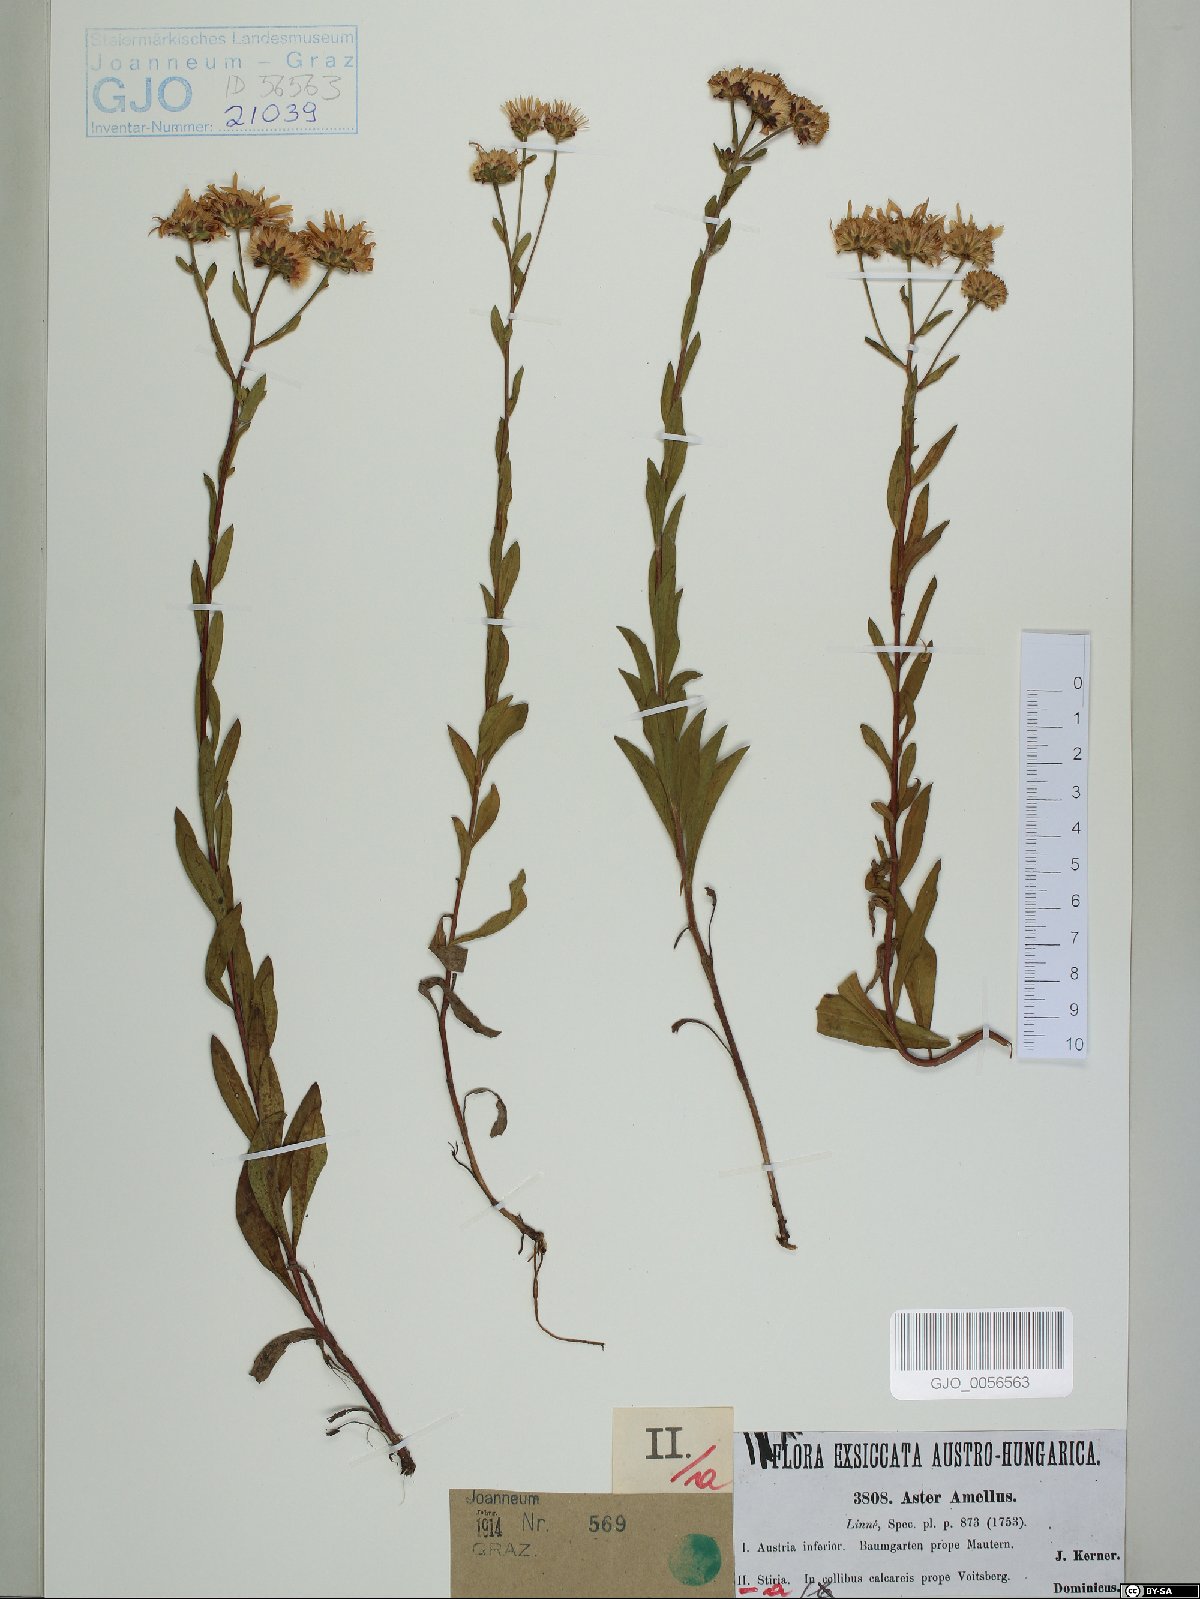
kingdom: Plantae
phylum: Tracheophyta
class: Magnoliopsida
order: Asterales
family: Asteraceae
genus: Aster
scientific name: Aster amellus
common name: European michaelmas daisy
